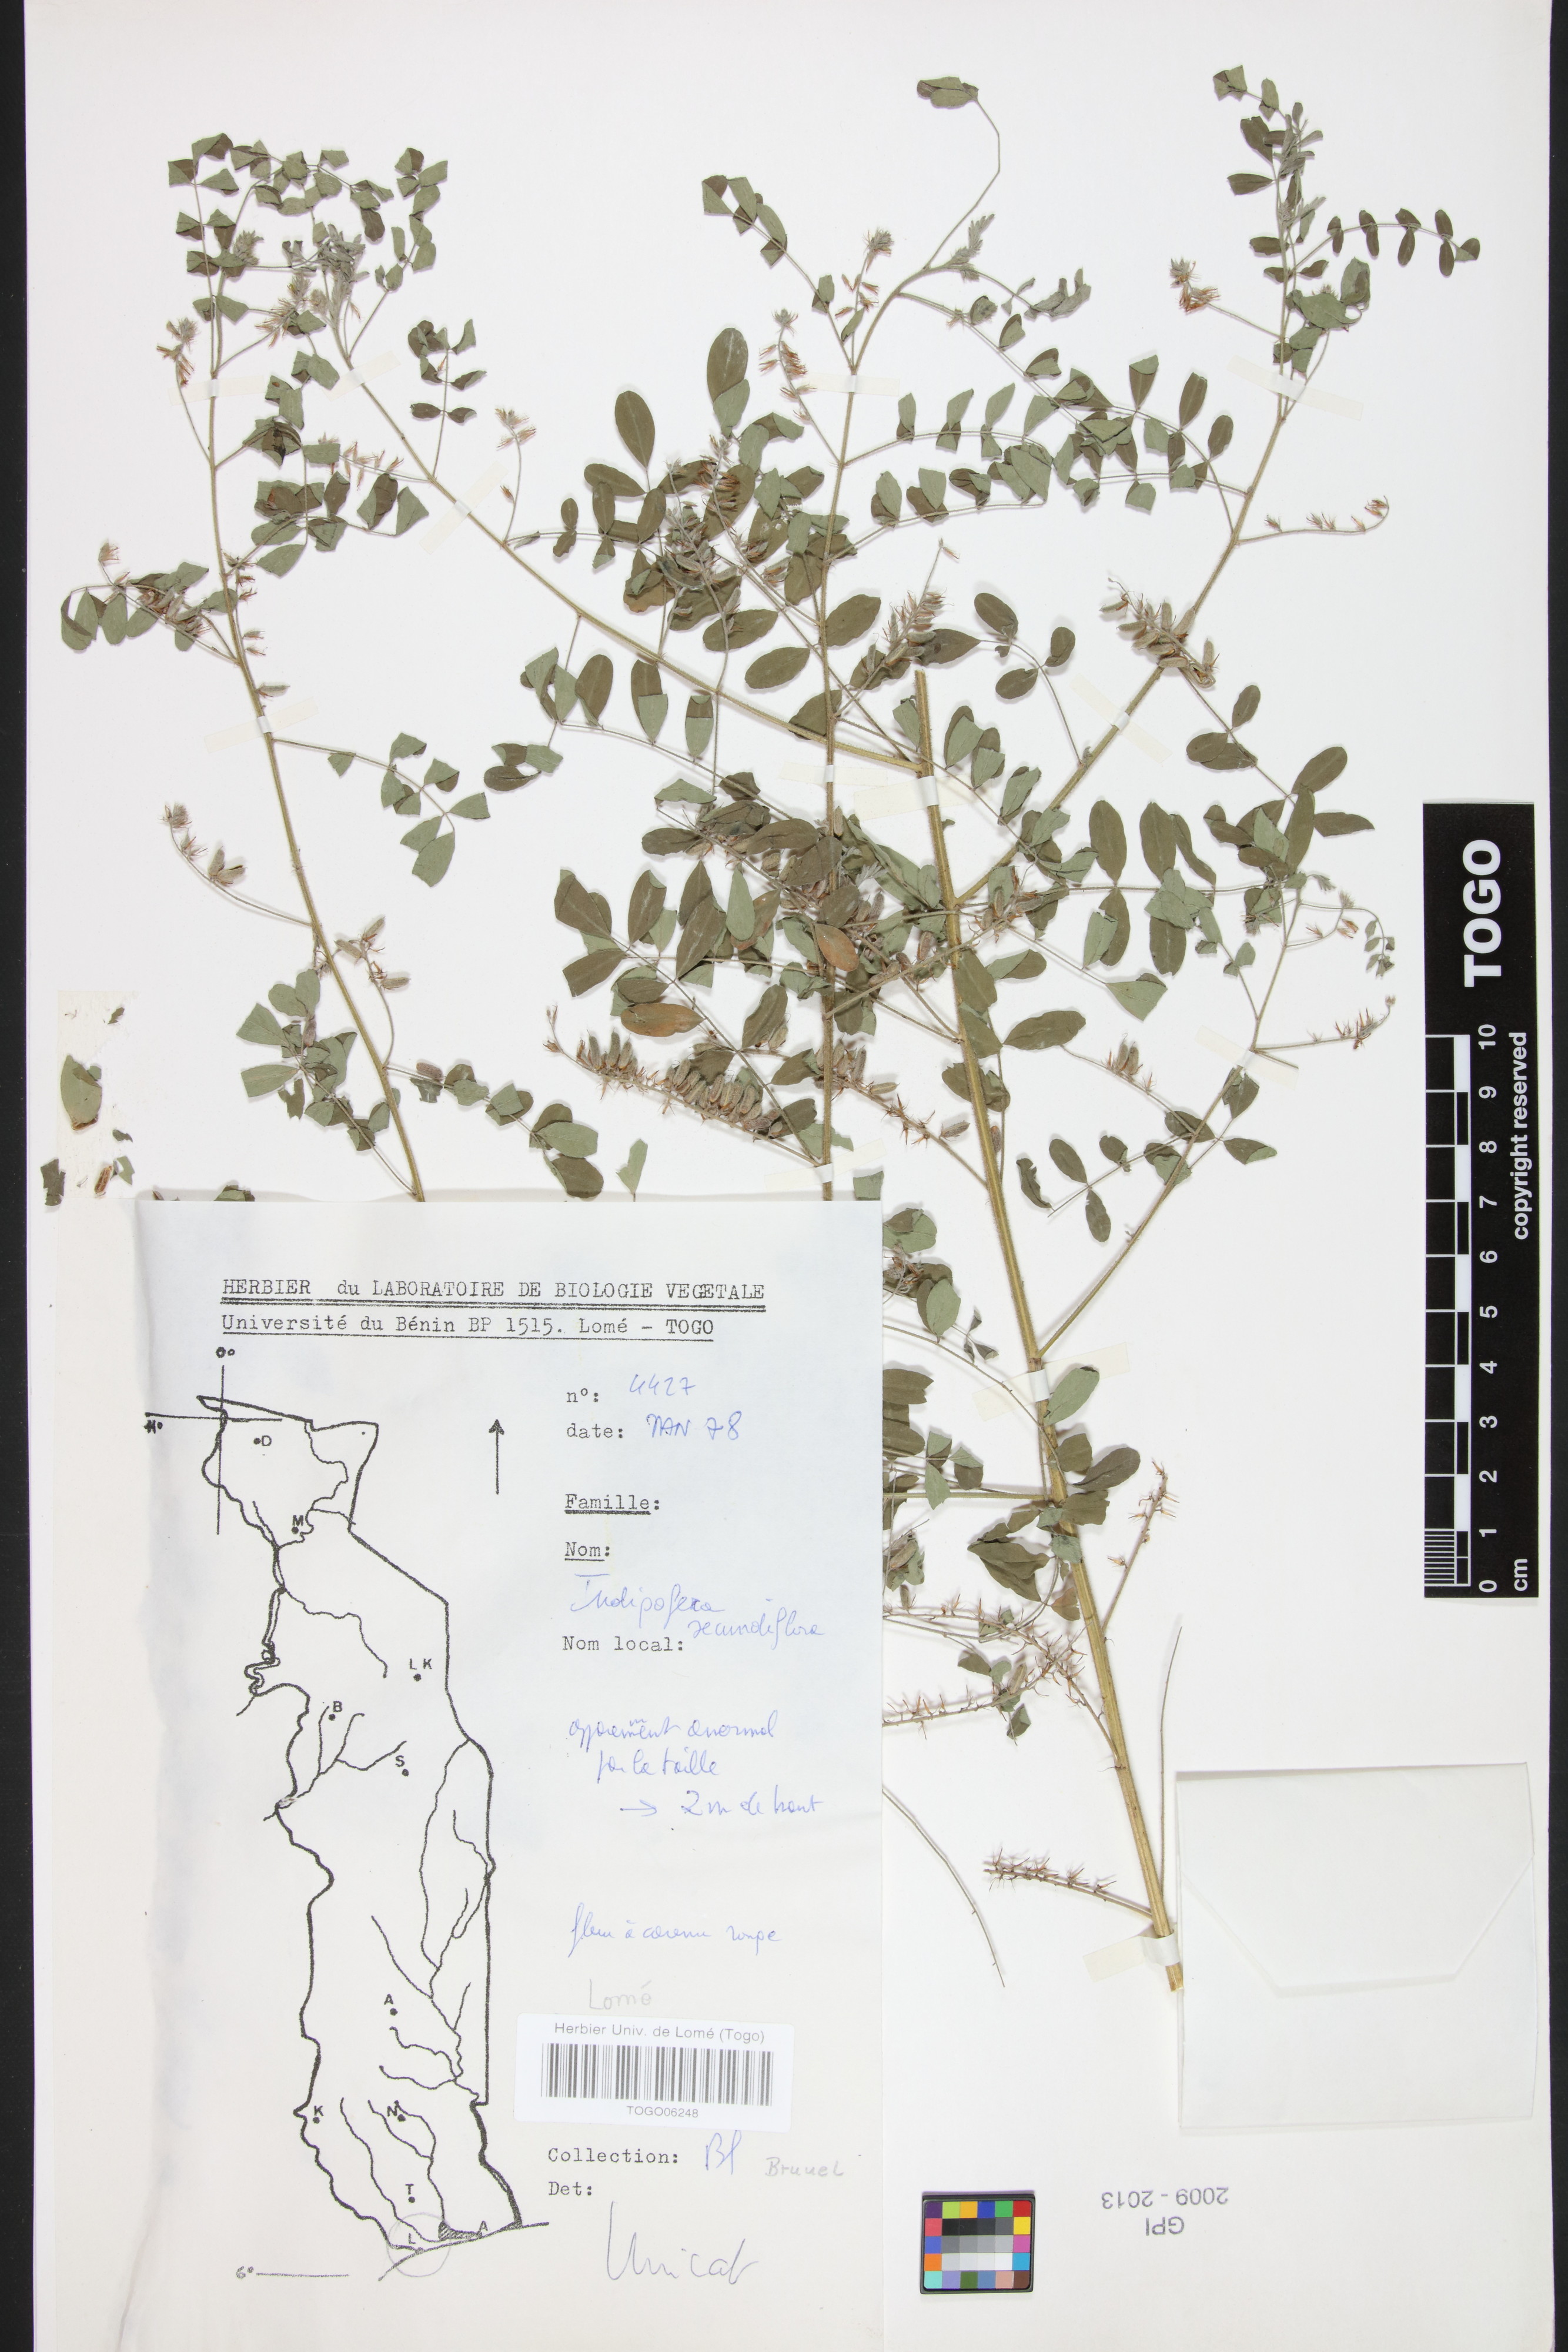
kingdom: Plantae
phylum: Tracheophyta
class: Magnoliopsida
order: Fabales
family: Fabaceae
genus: Indigofera
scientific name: Indigofera secundiflora
